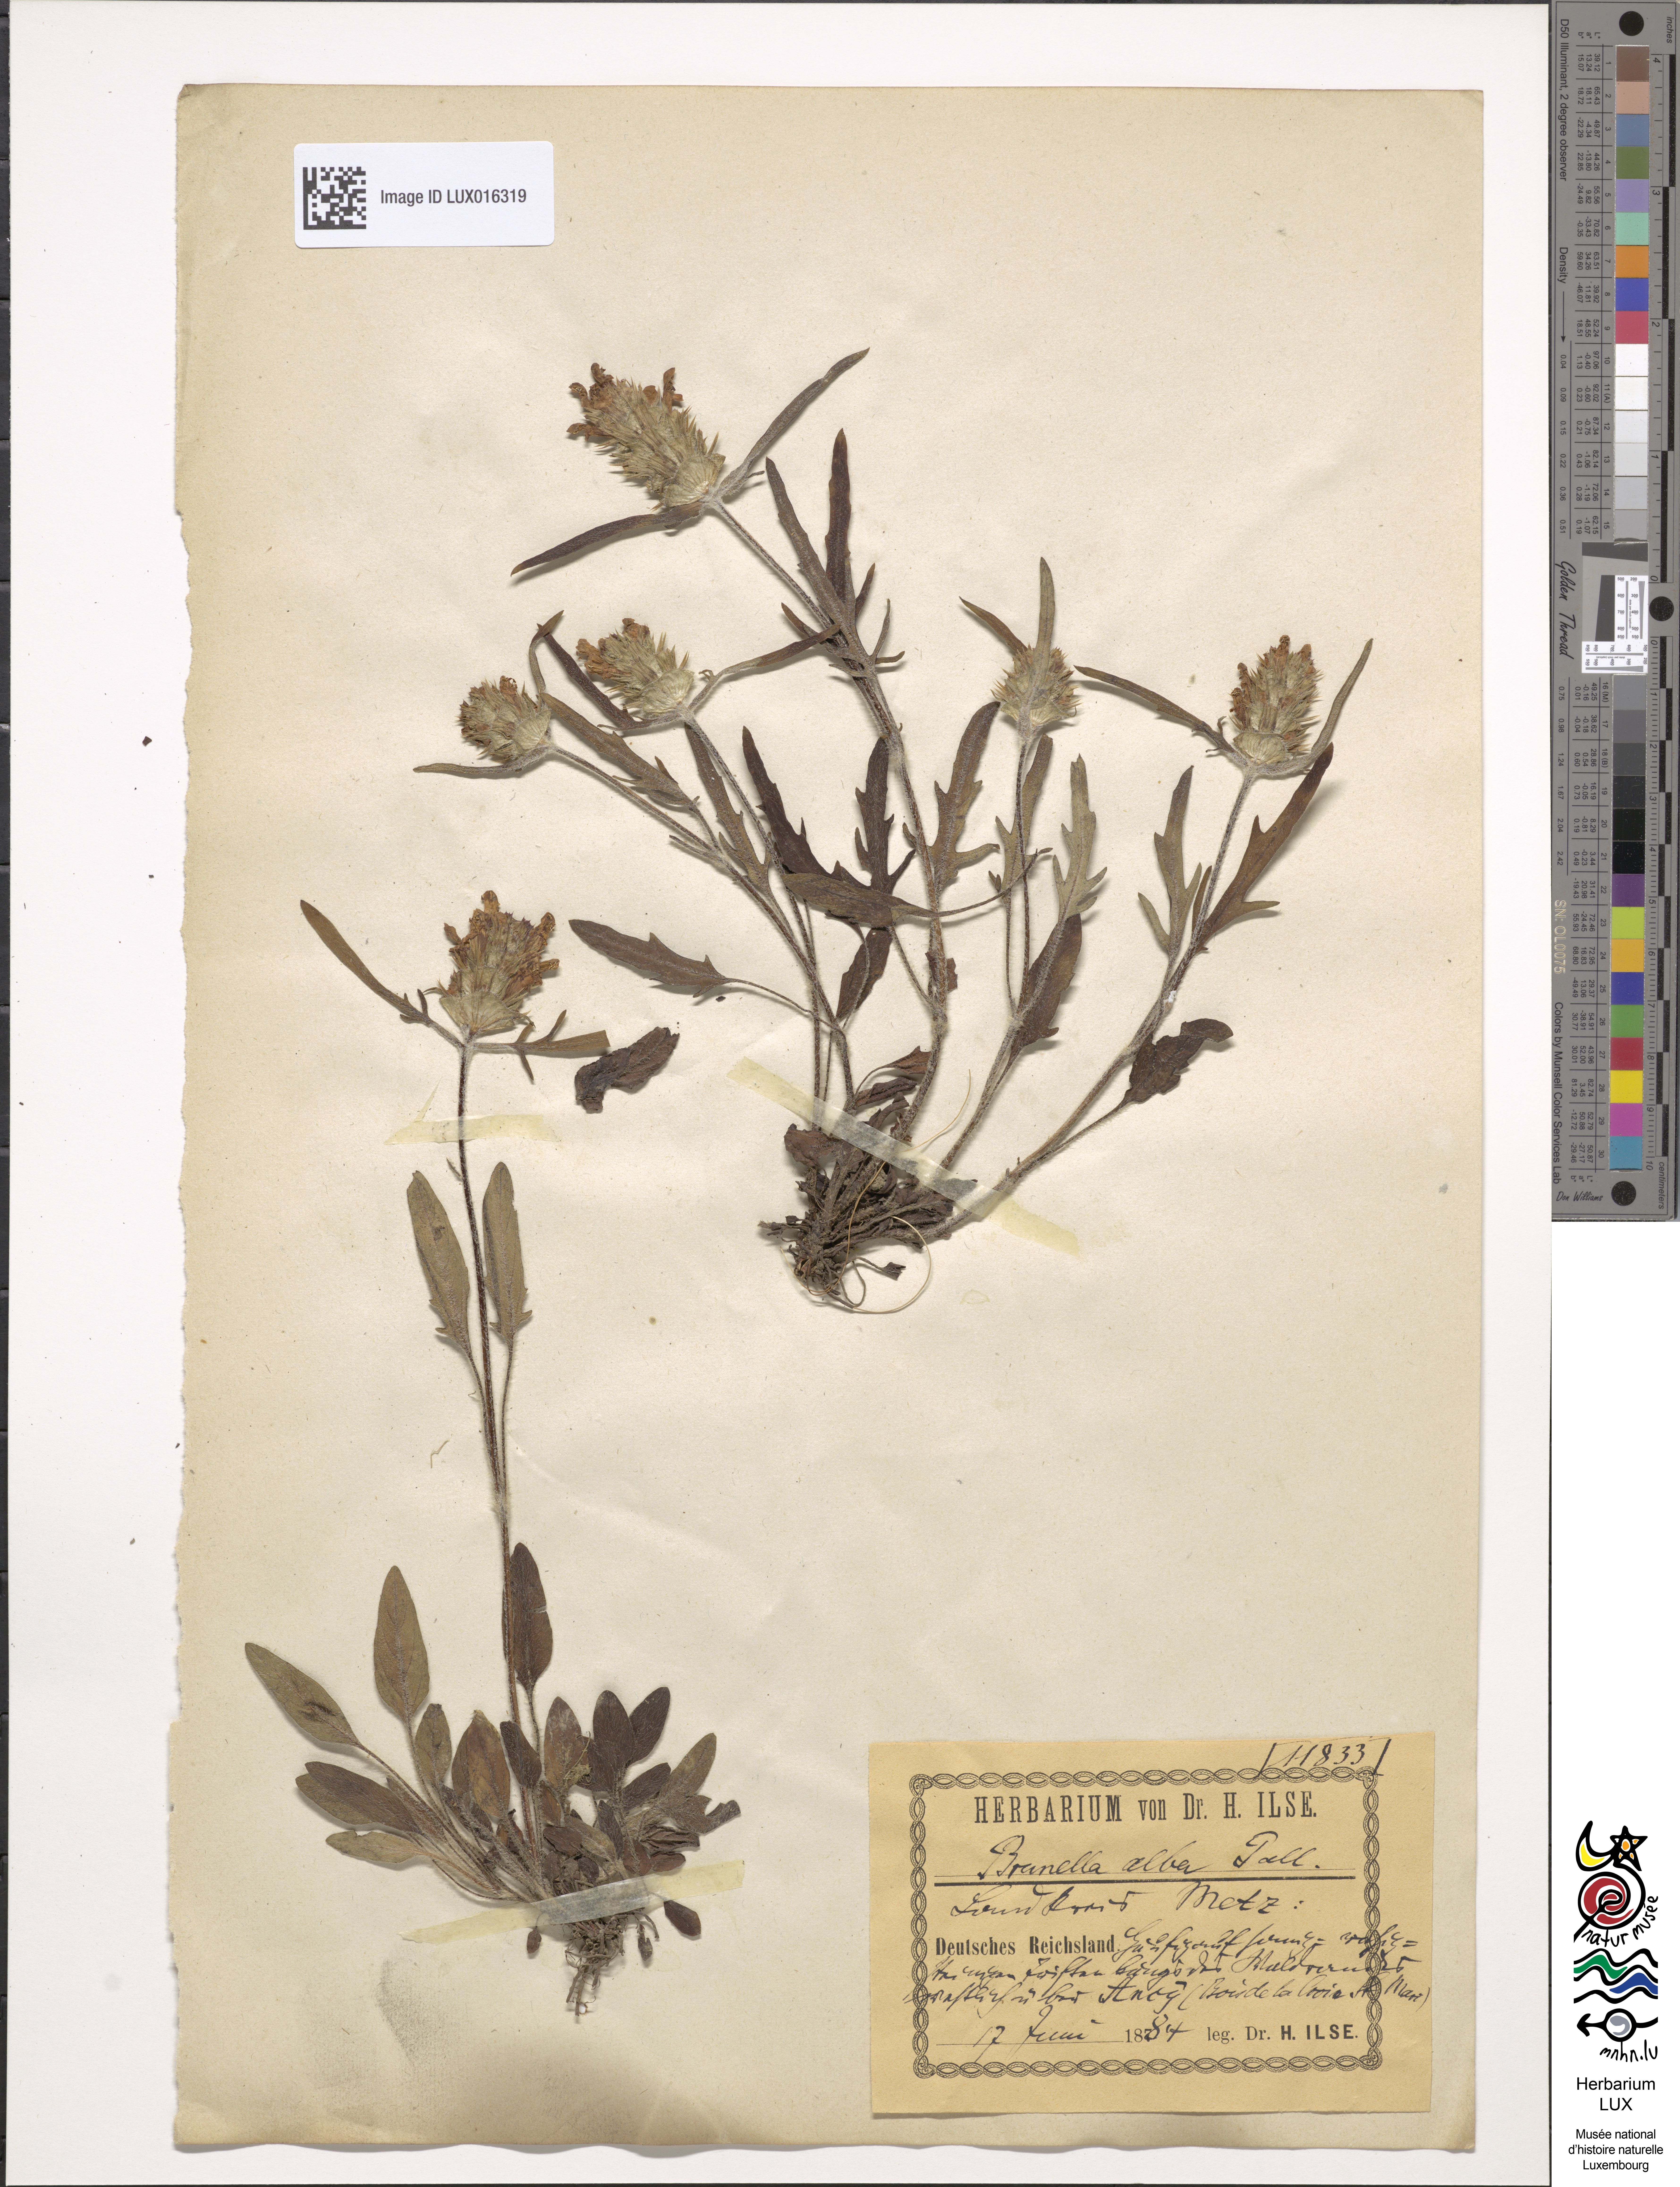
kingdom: Plantae
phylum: Tracheophyta
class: Magnoliopsida
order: Lamiales
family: Lamiaceae
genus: Prunella
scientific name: Prunella laciniata
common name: Cut-leaved selfheal
